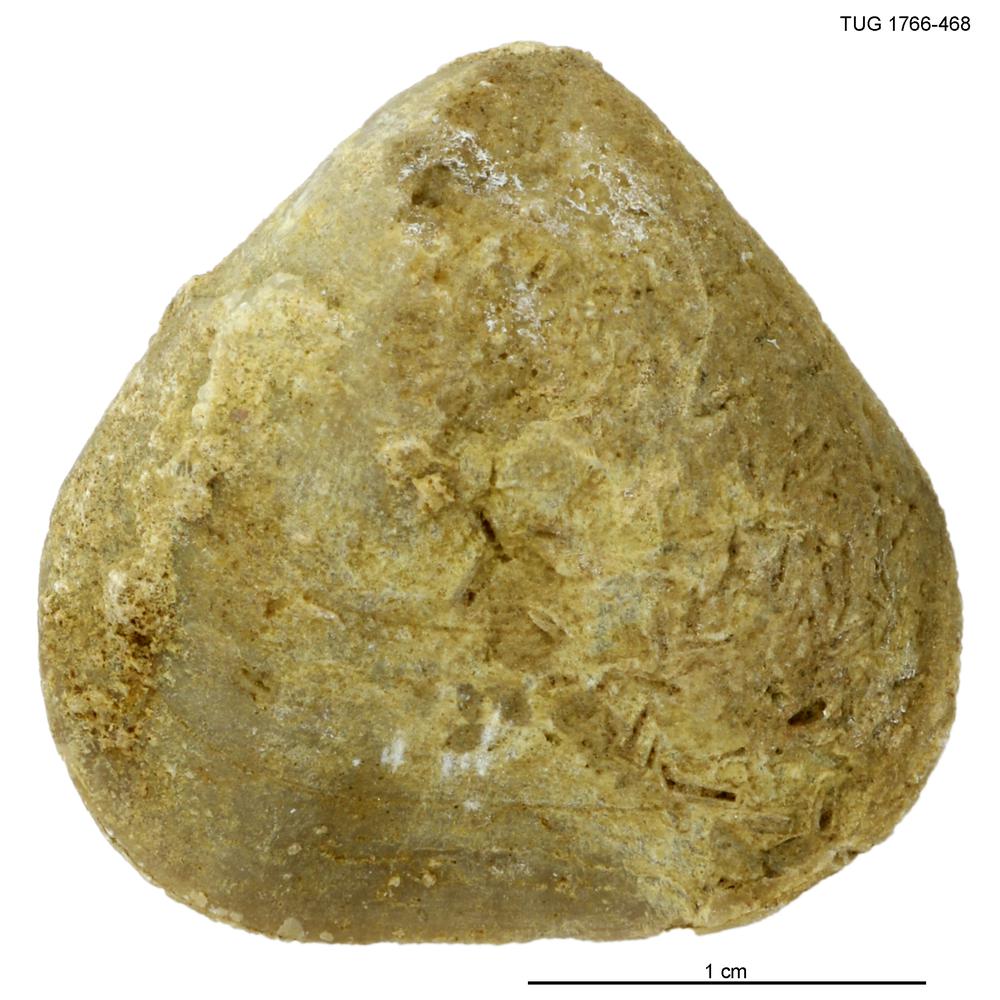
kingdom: Animalia
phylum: Brachiopoda
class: Rhynchonellata
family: Porambonitidae
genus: Porambonites
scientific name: Porambonites
